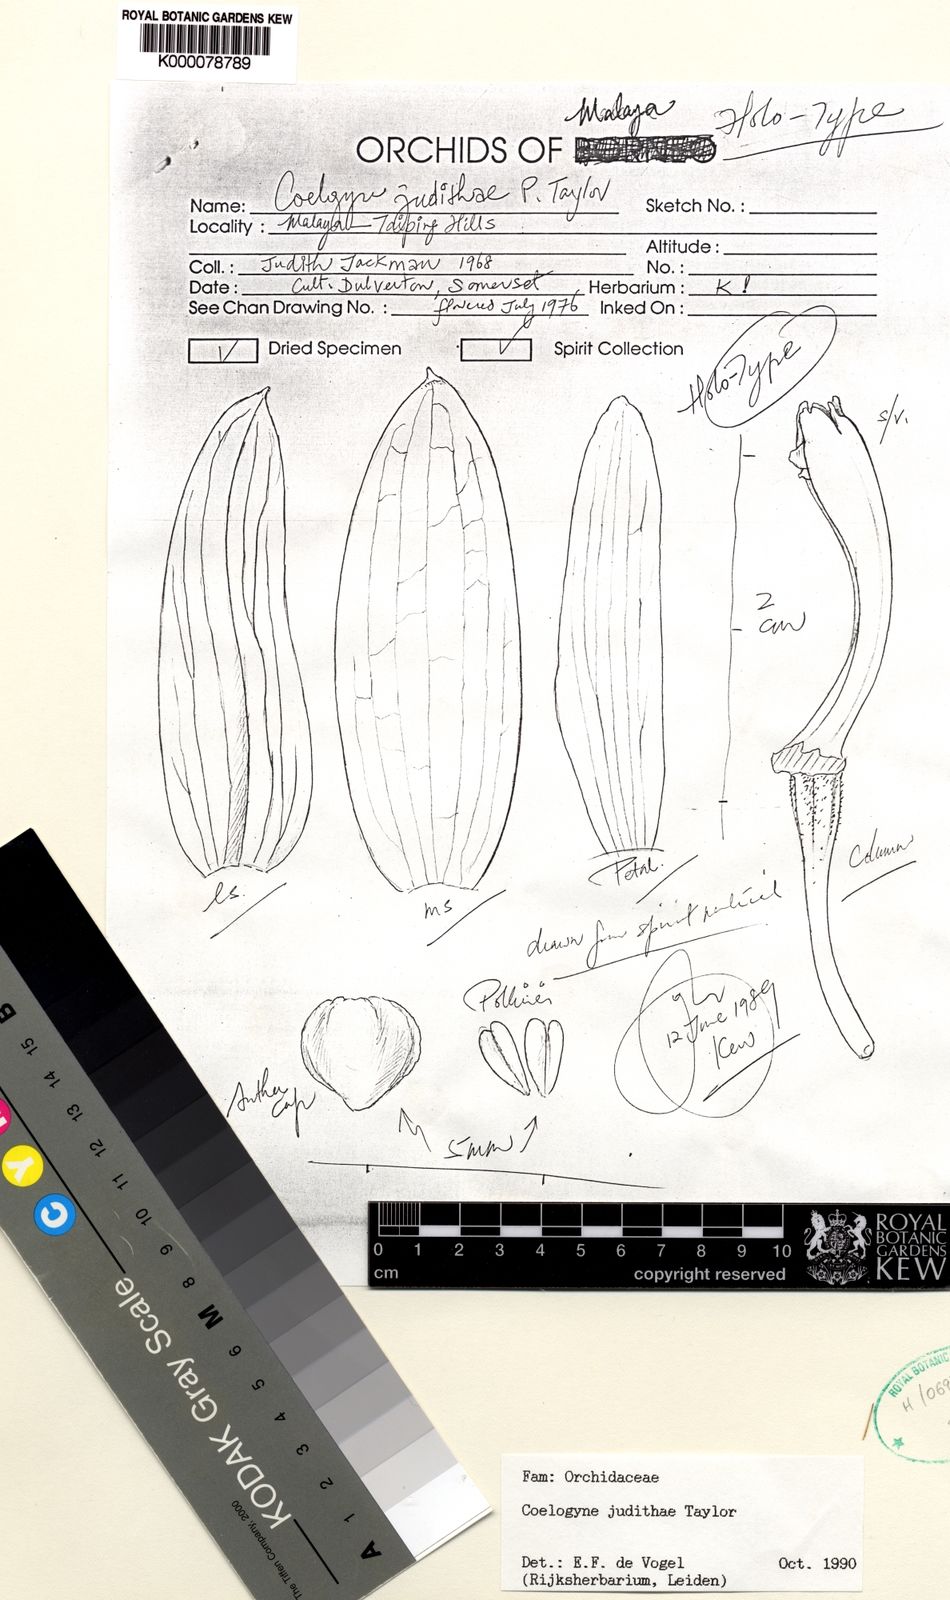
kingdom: Plantae
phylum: Tracheophyta
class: Liliopsida
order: Asparagales
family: Orchidaceae
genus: Coelogyne
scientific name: Coelogyne rhabdobulbon
